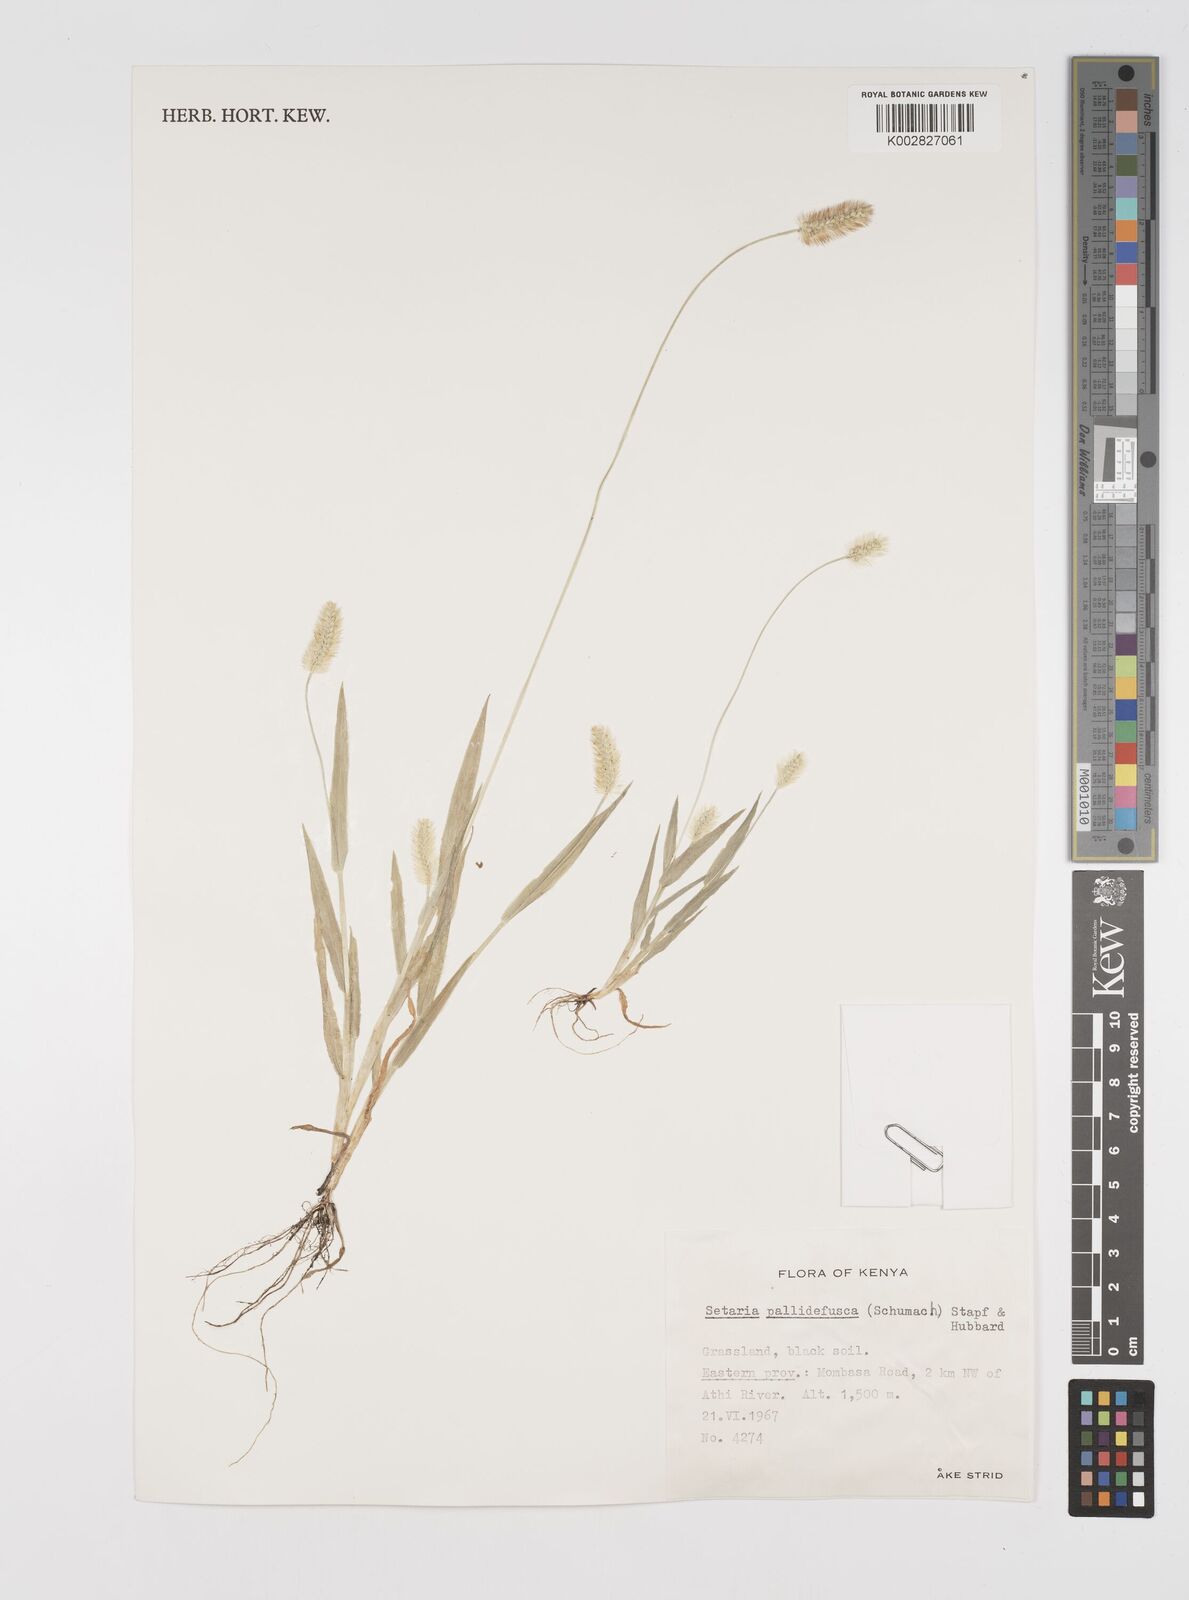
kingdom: Plantae
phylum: Tracheophyta
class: Liliopsida
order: Poales
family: Poaceae
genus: Setaria
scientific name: Setaria pumila
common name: Yellow bristle-grass
